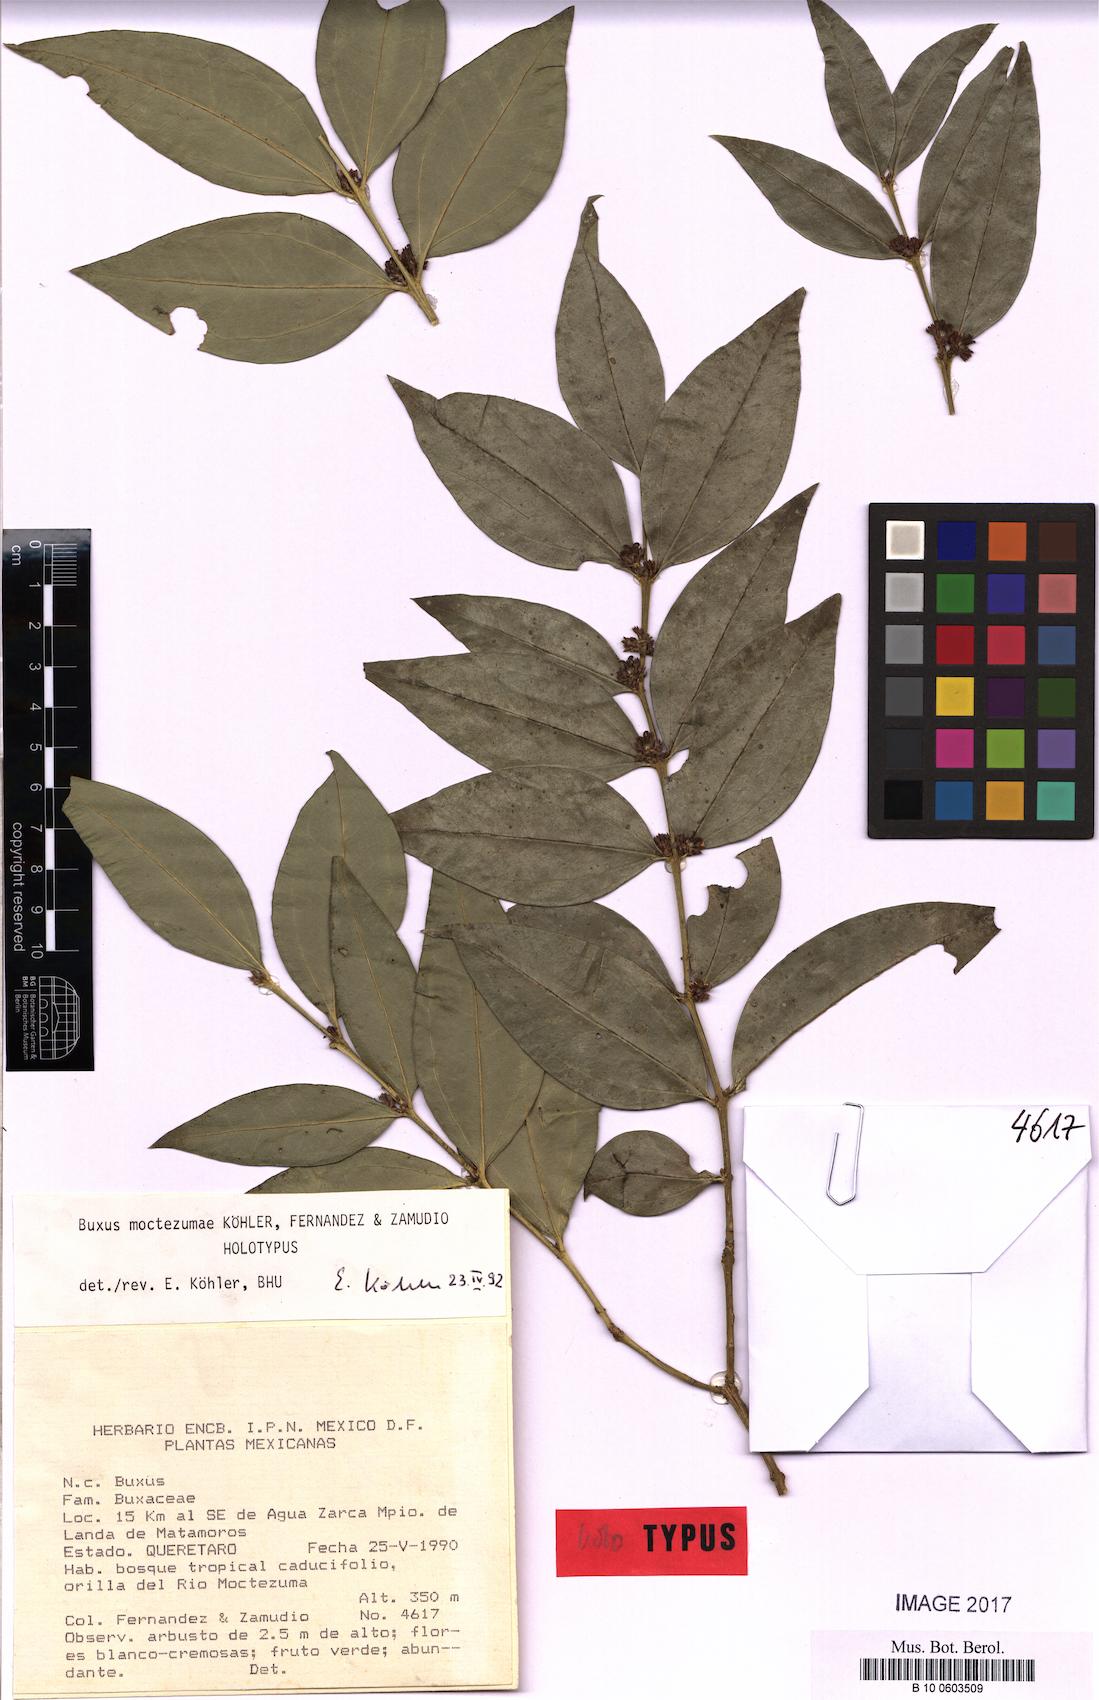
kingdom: Plantae
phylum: Tracheophyta
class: Magnoliopsida
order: Buxales
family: Buxaceae
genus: Buxus
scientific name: Buxus moctezumae
